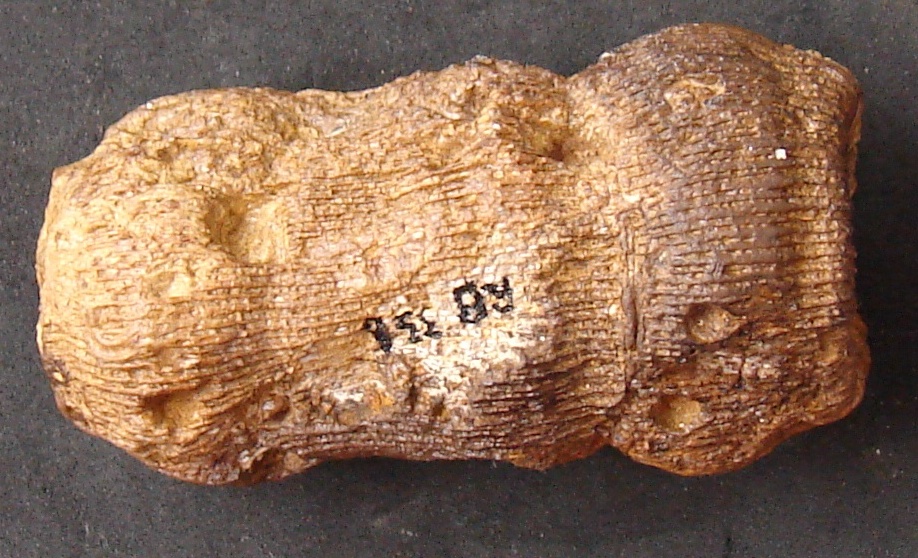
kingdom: Animalia
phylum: Cnidaria
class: Anthozoa
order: Scleractinia
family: Thecosmiliidae
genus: Montlivaltia
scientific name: Montlivaltia
